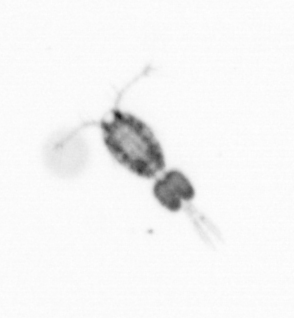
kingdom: Animalia
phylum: Arthropoda
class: Copepoda
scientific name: Copepoda
